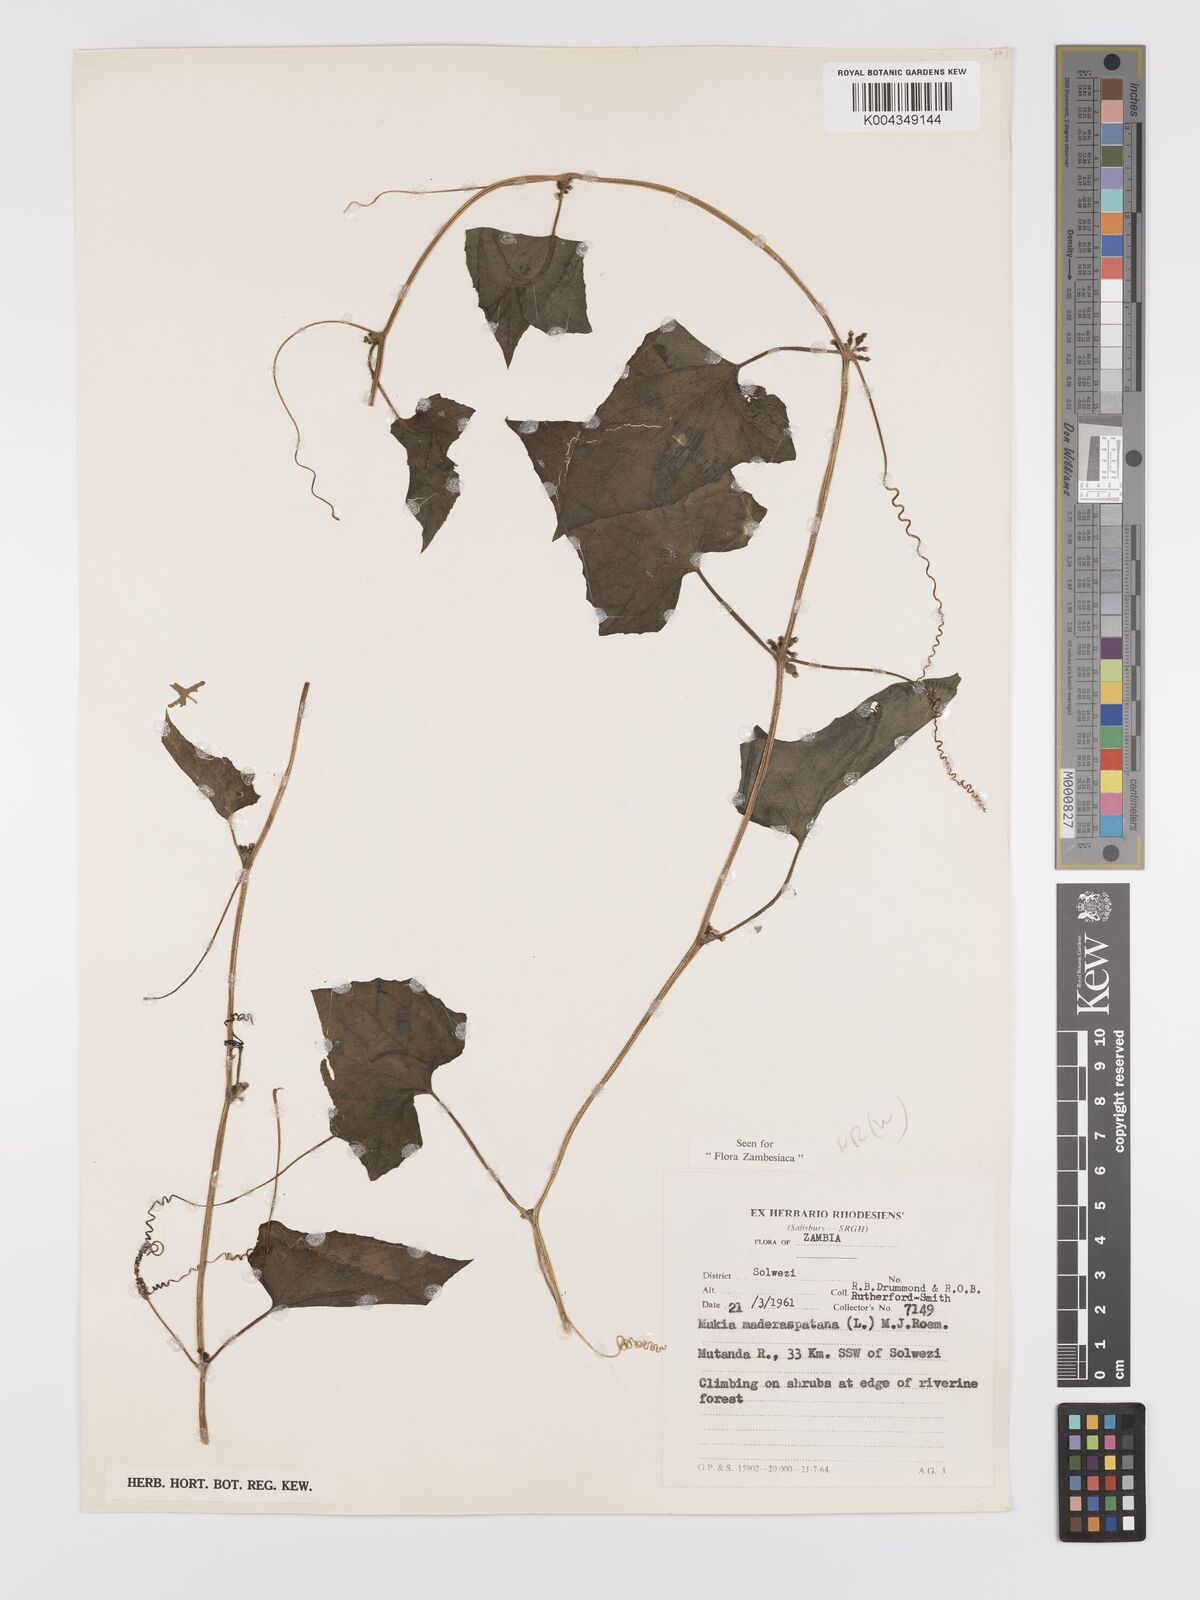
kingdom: Plantae
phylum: Tracheophyta
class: Magnoliopsida
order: Cucurbitales
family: Cucurbitaceae
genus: Cucumis
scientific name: Cucumis maderaspatanus
